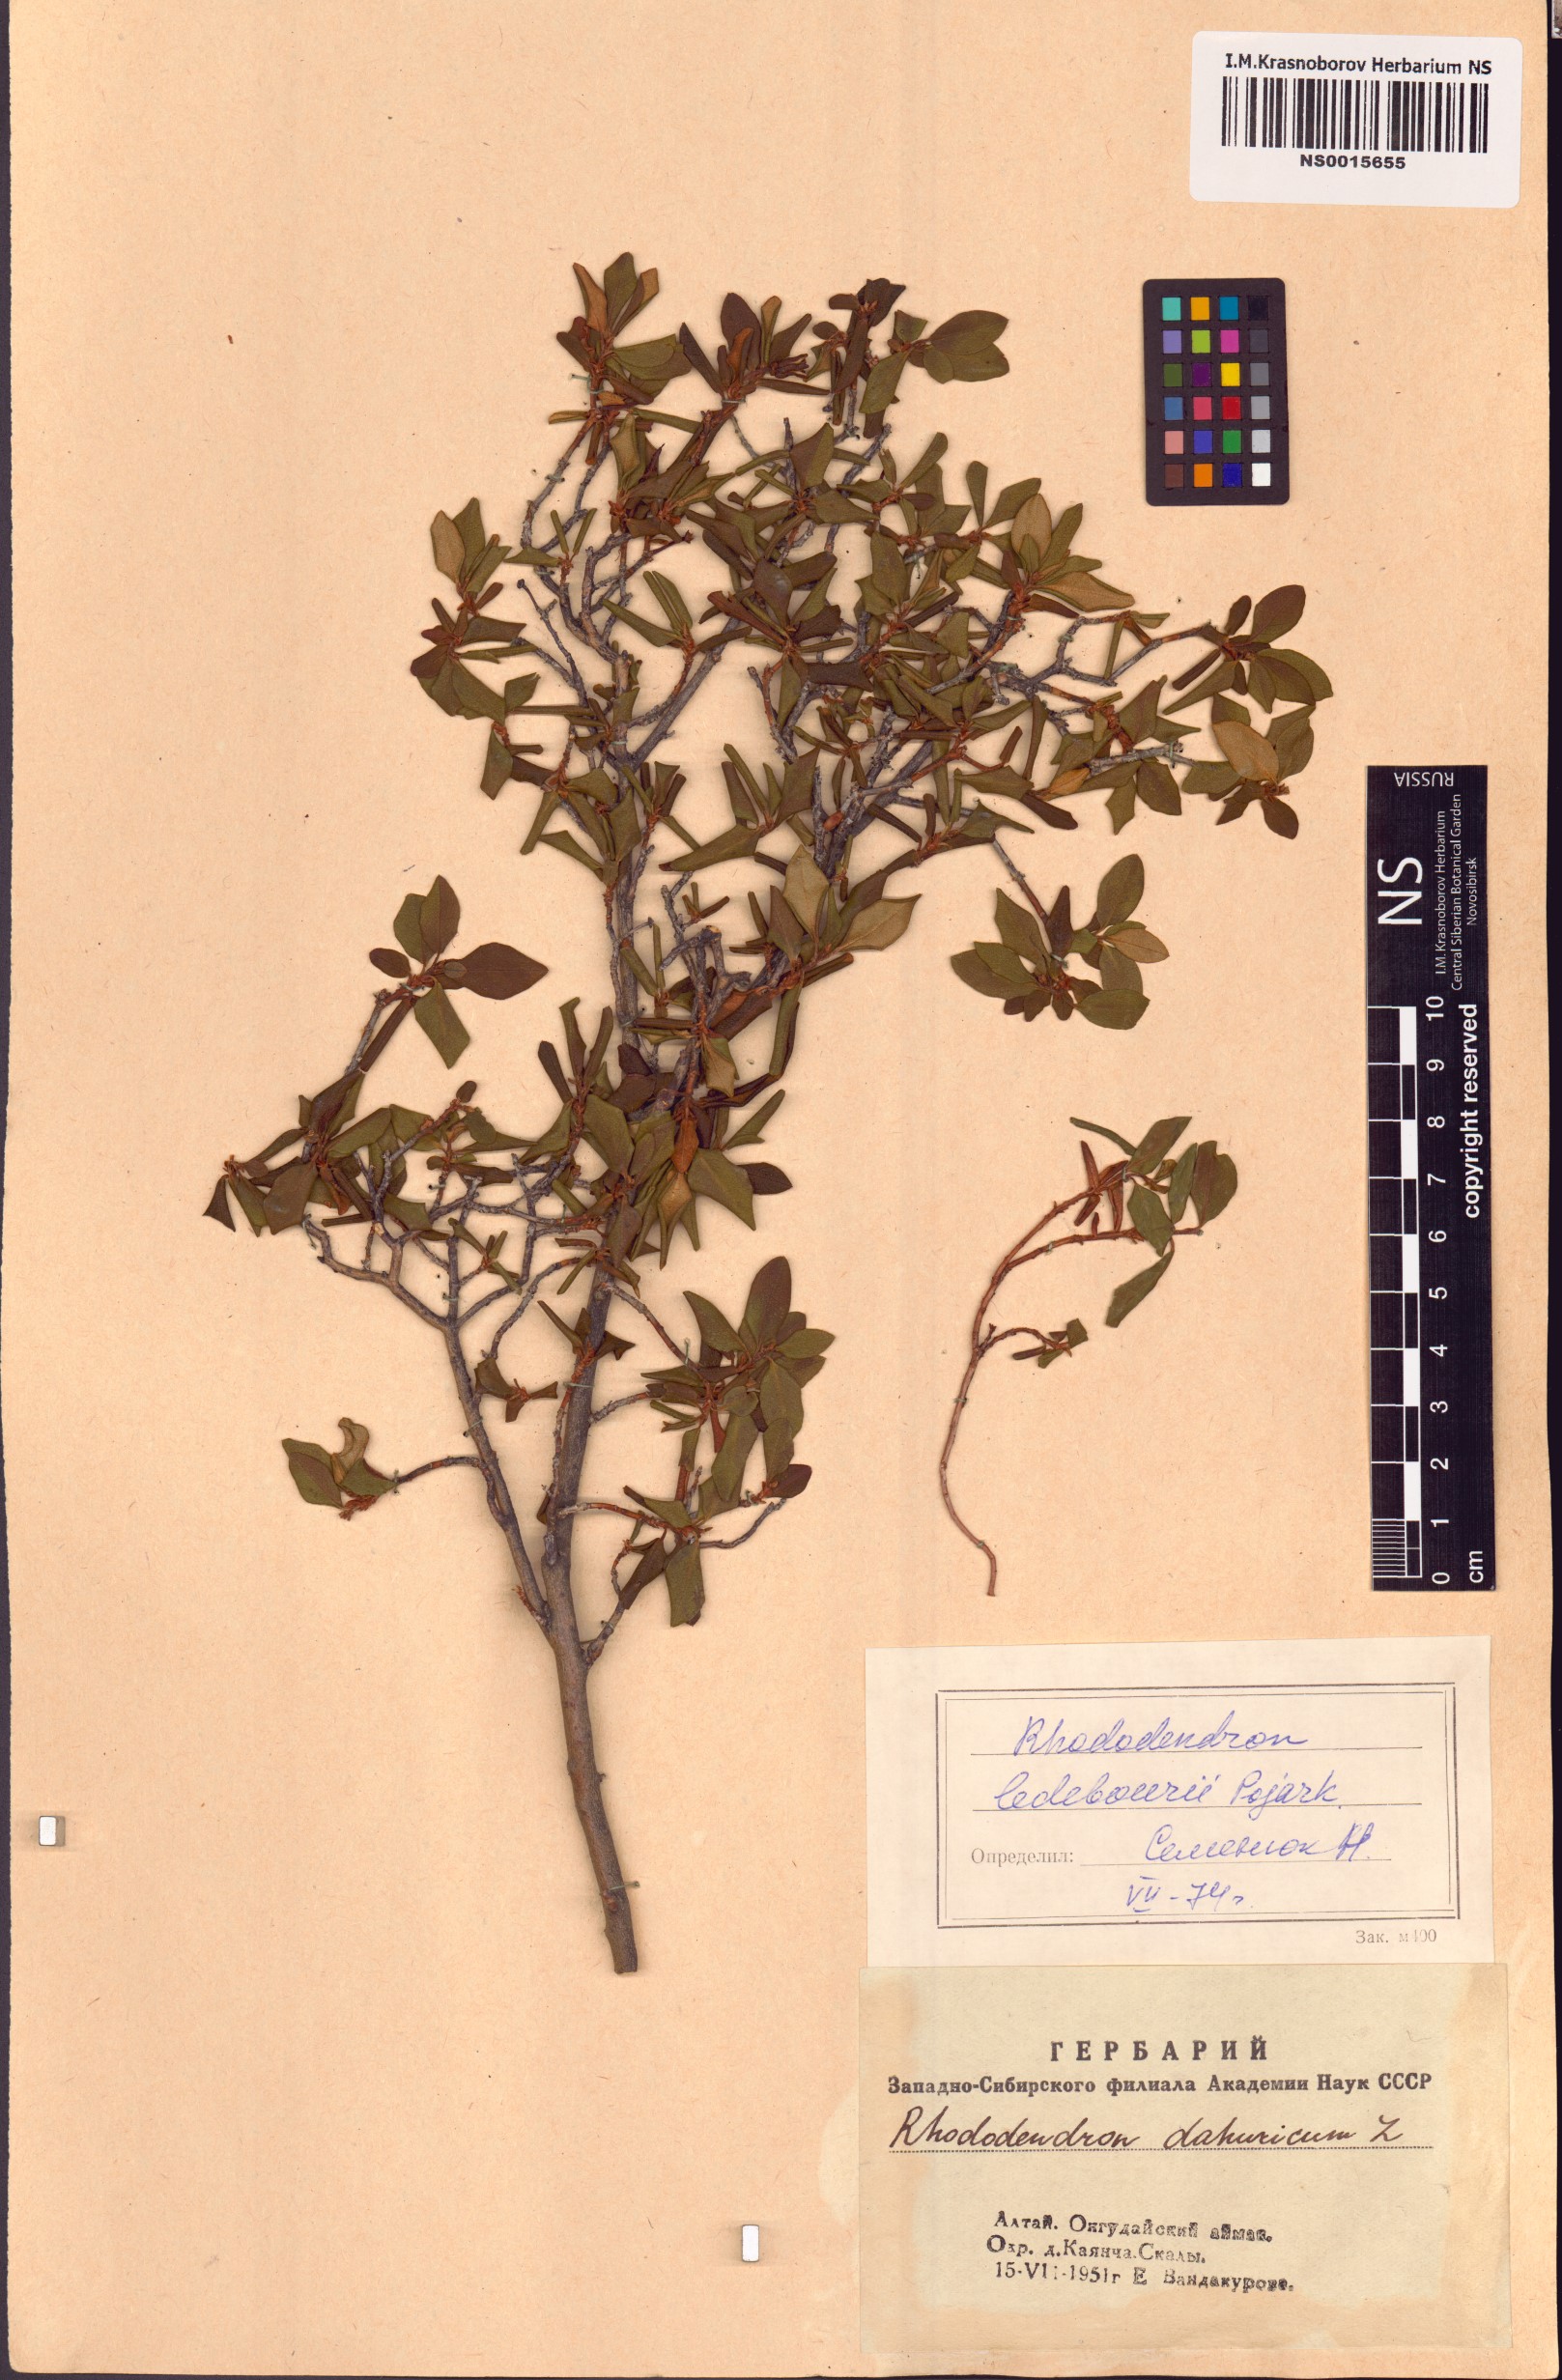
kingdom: Plantae
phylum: Tracheophyta
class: Magnoliopsida
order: Ericales
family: Ericaceae
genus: Rhododendron
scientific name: Rhododendron dauricum
